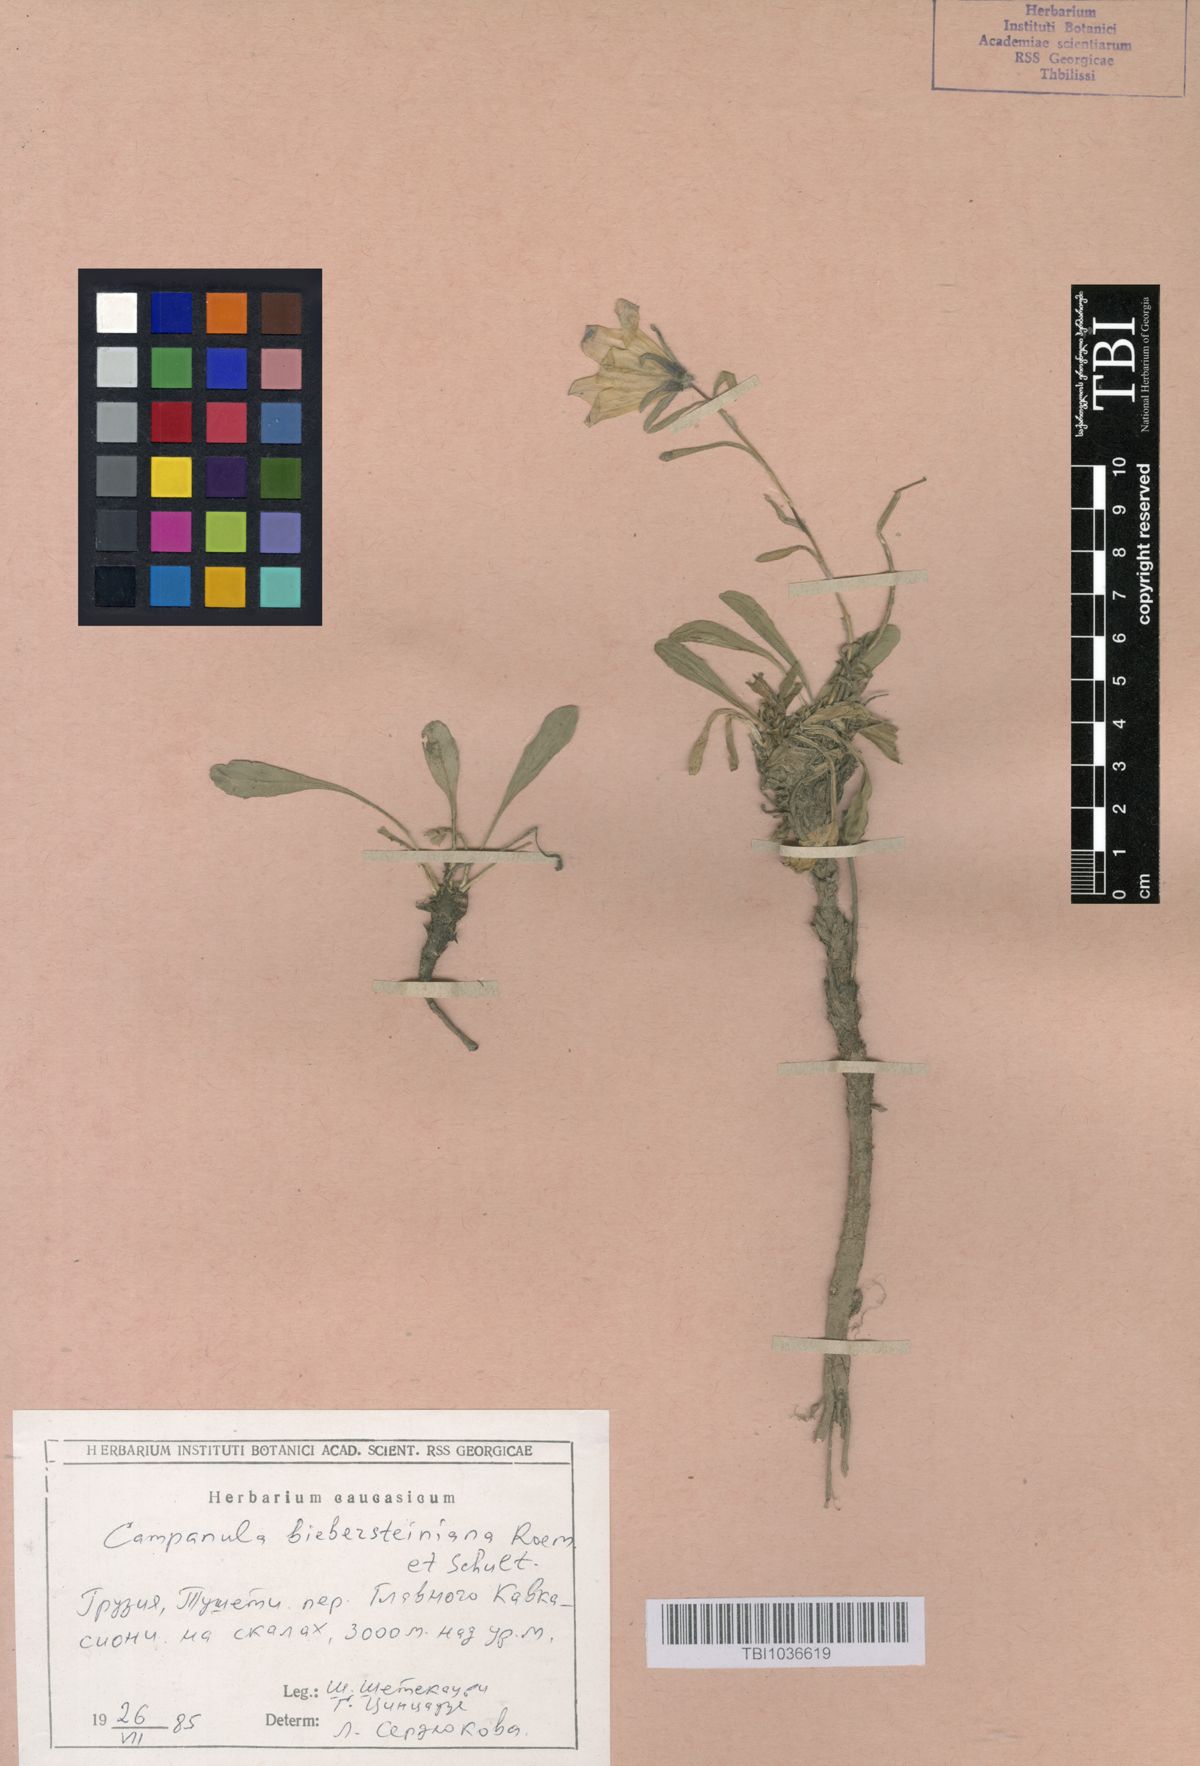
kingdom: Plantae
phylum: Tracheophyta
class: Magnoliopsida
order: Asterales
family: Campanulaceae
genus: Campanula
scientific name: Campanula tridentata
